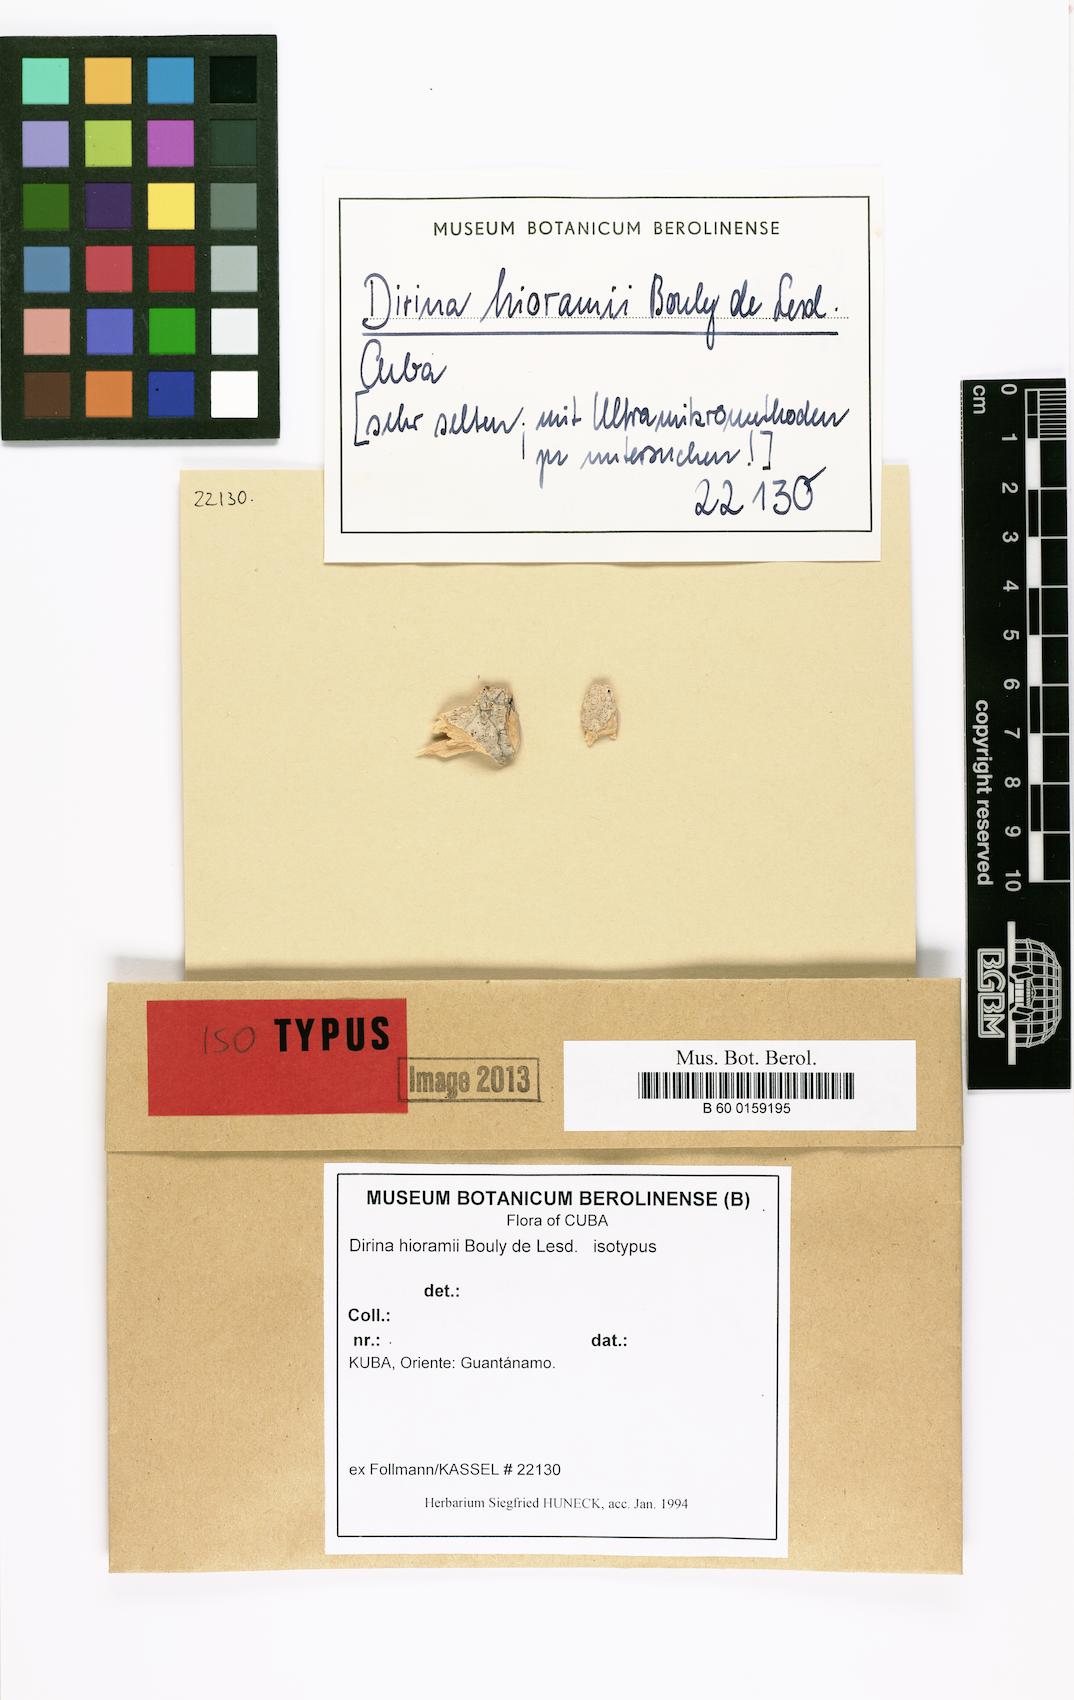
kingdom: Fungi
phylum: Ascomycota
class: Arthoniomycetes
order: Arthoniales
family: Roccellaceae
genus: Dirina
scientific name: Dirina hierami
